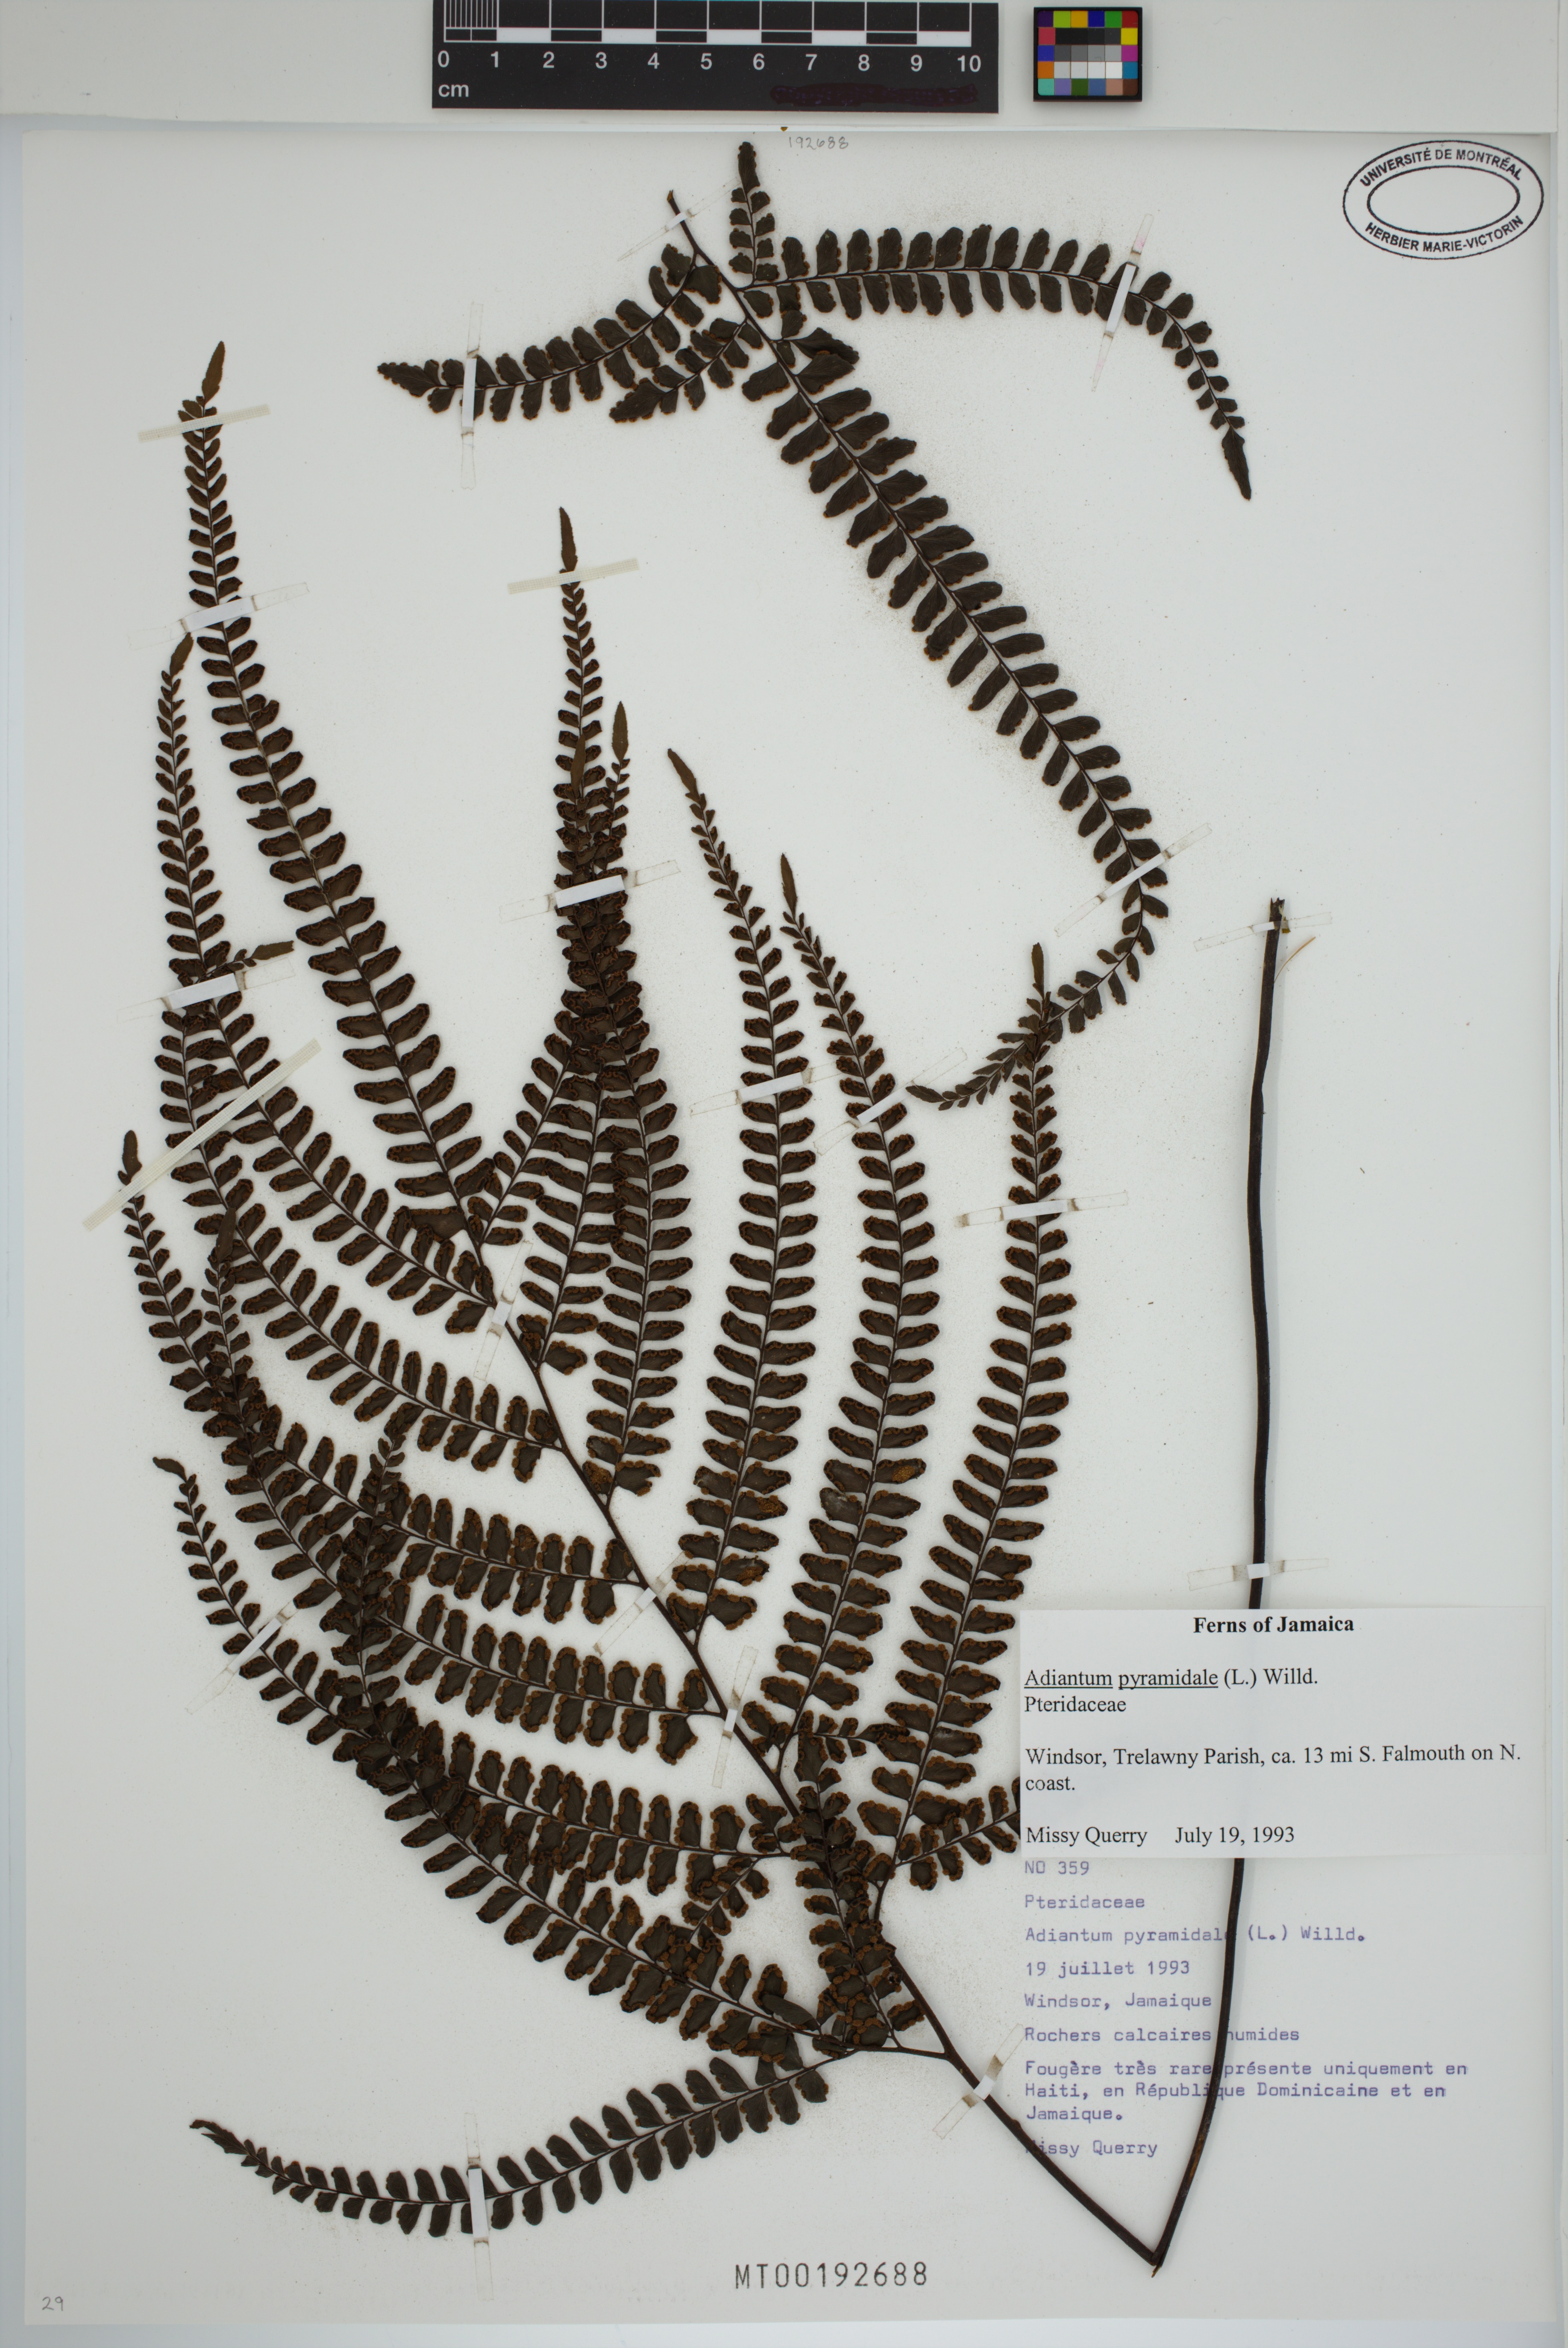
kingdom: Plantae
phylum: Tracheophyta
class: Polypodiopsida
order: Polypodiales
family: Pteridaceae
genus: Adiantum
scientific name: Adiantum pyramidale
